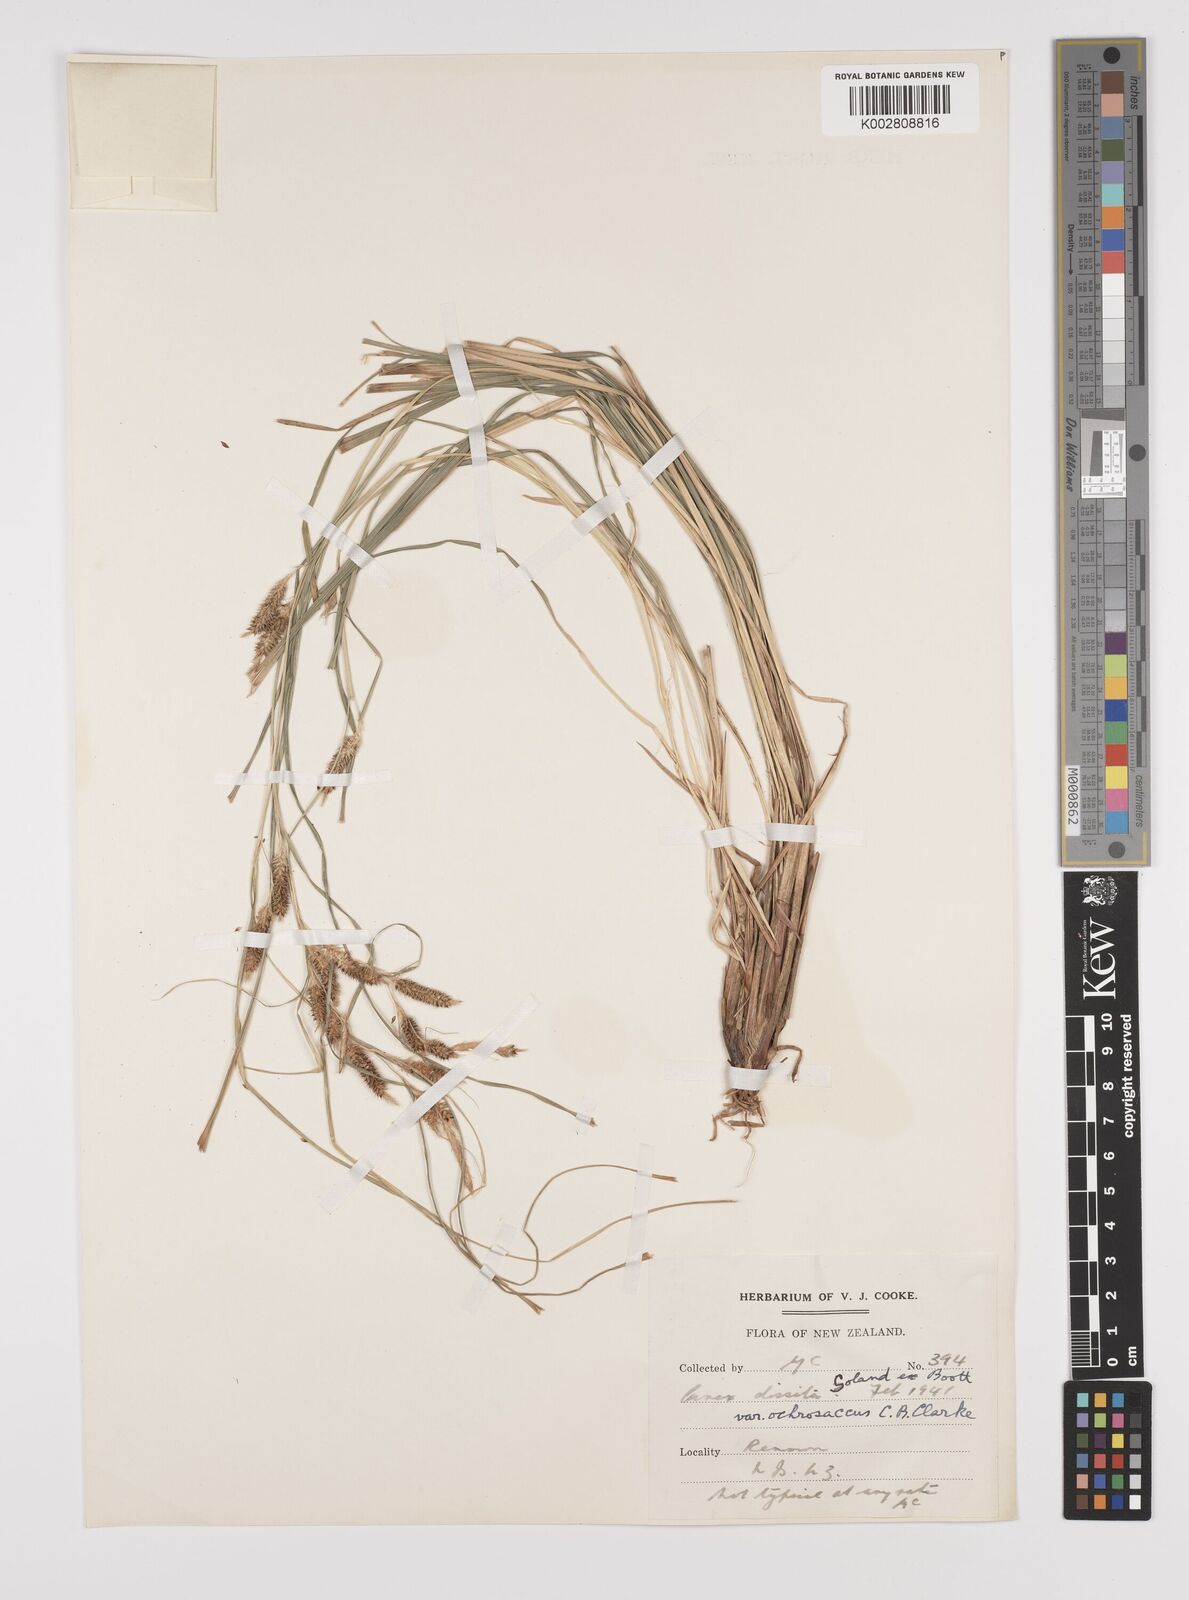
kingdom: Plantae
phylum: Tracheophyta
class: Liliopsida
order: Poales
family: Cyperaceae
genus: Carex
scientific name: Carex ochrosaccus
